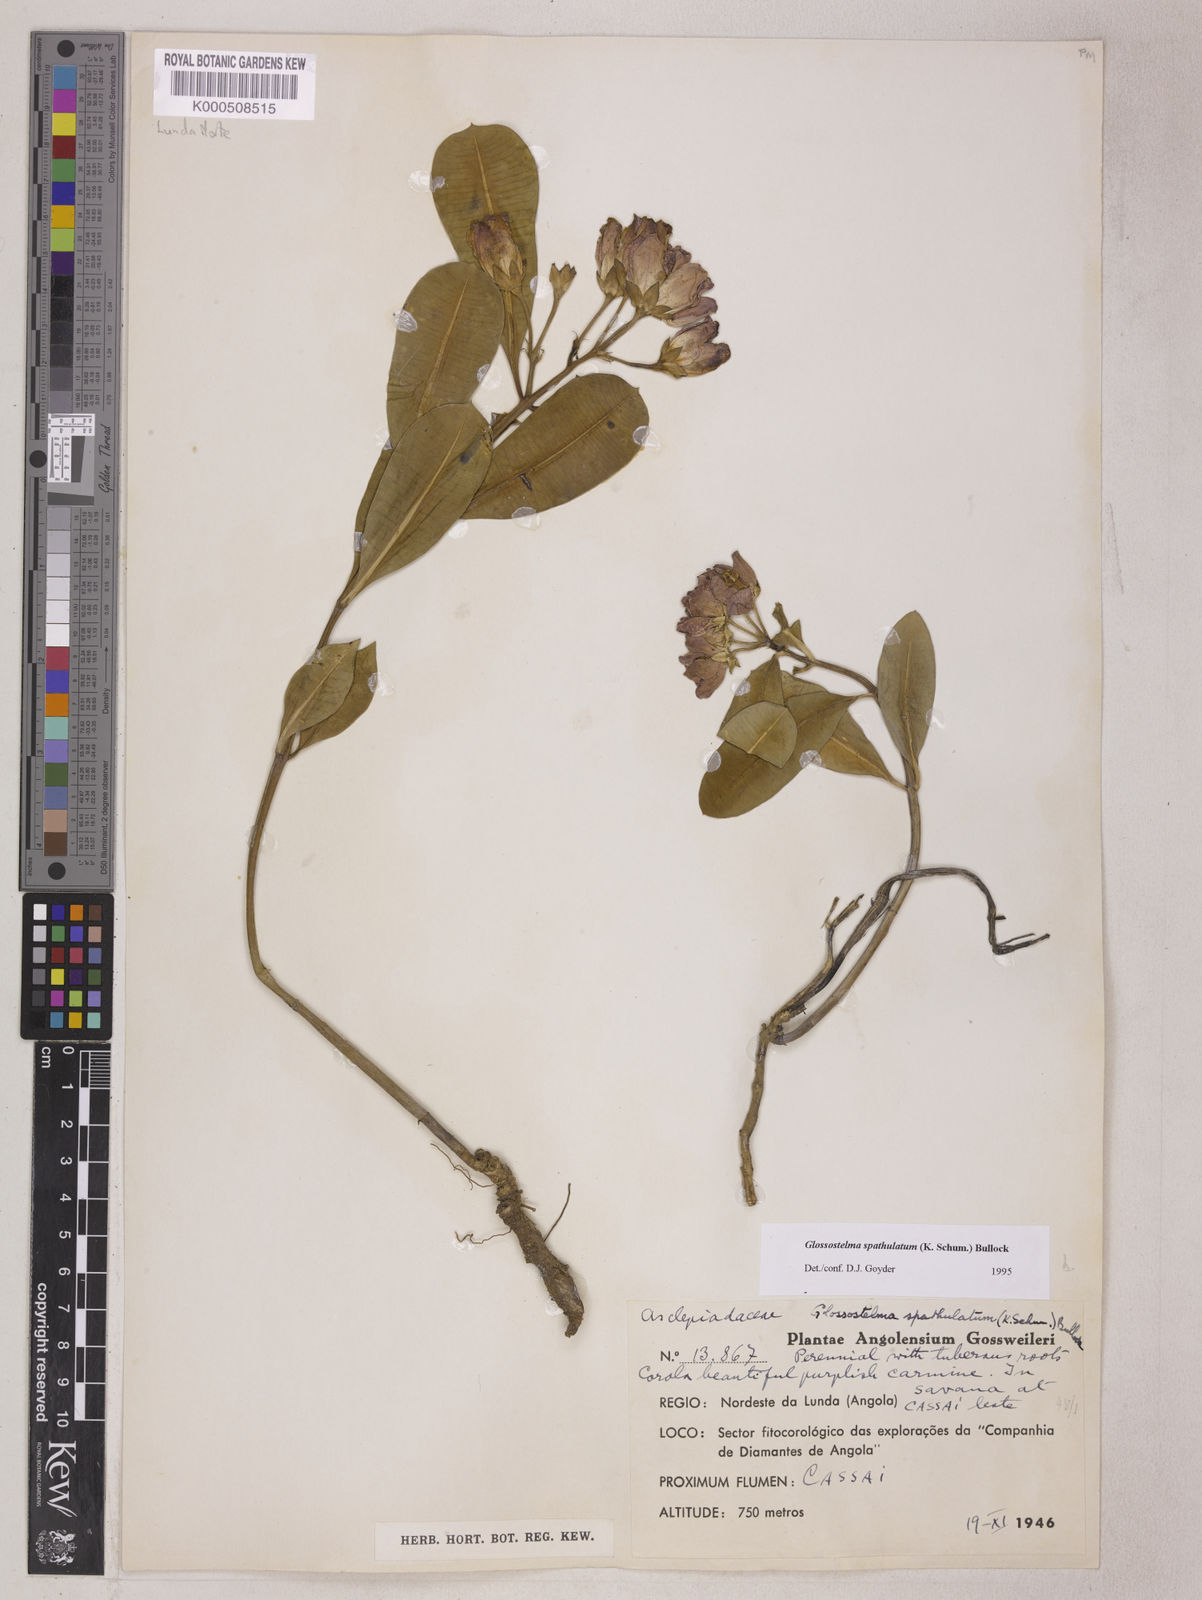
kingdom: Plantae
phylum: Tracheophyta
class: Magnoliopsida
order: Gentianales
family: Apocynaceae
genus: Glossostelma
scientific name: Glossostelma spathulatum
